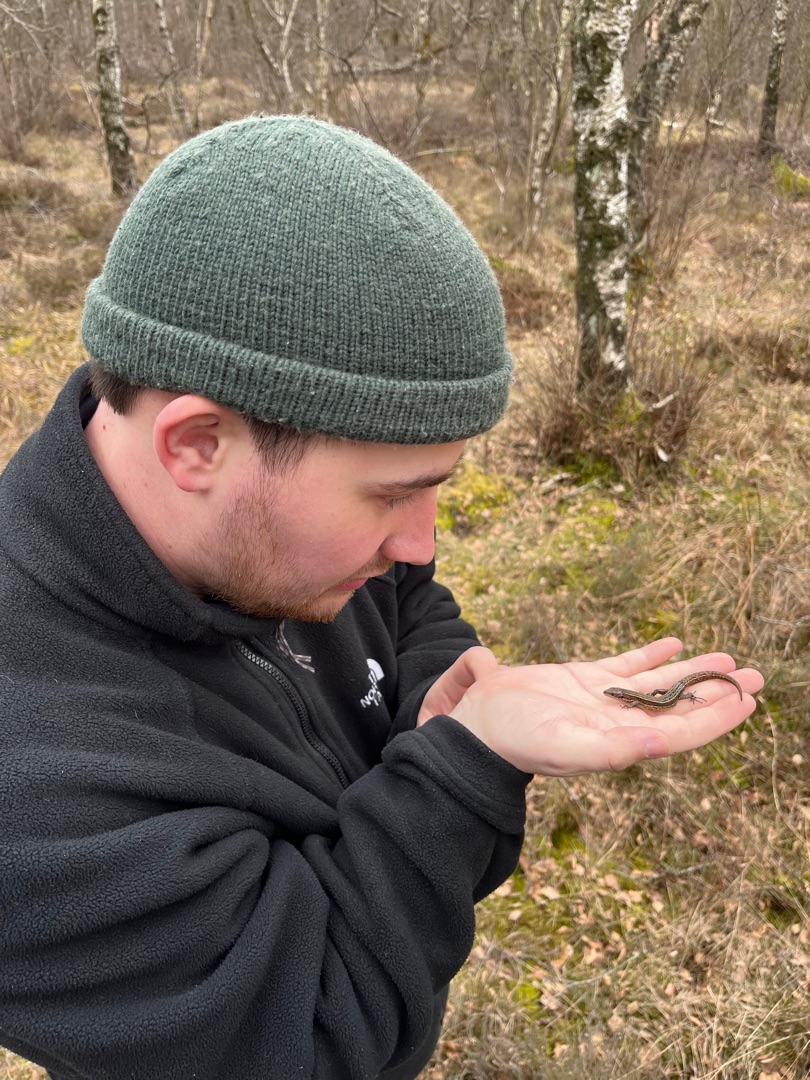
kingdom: Animalia
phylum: Chordata
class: Squamata
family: Lacertidae
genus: Zootoca
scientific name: Zootoca vivipara
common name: Skovfirben
